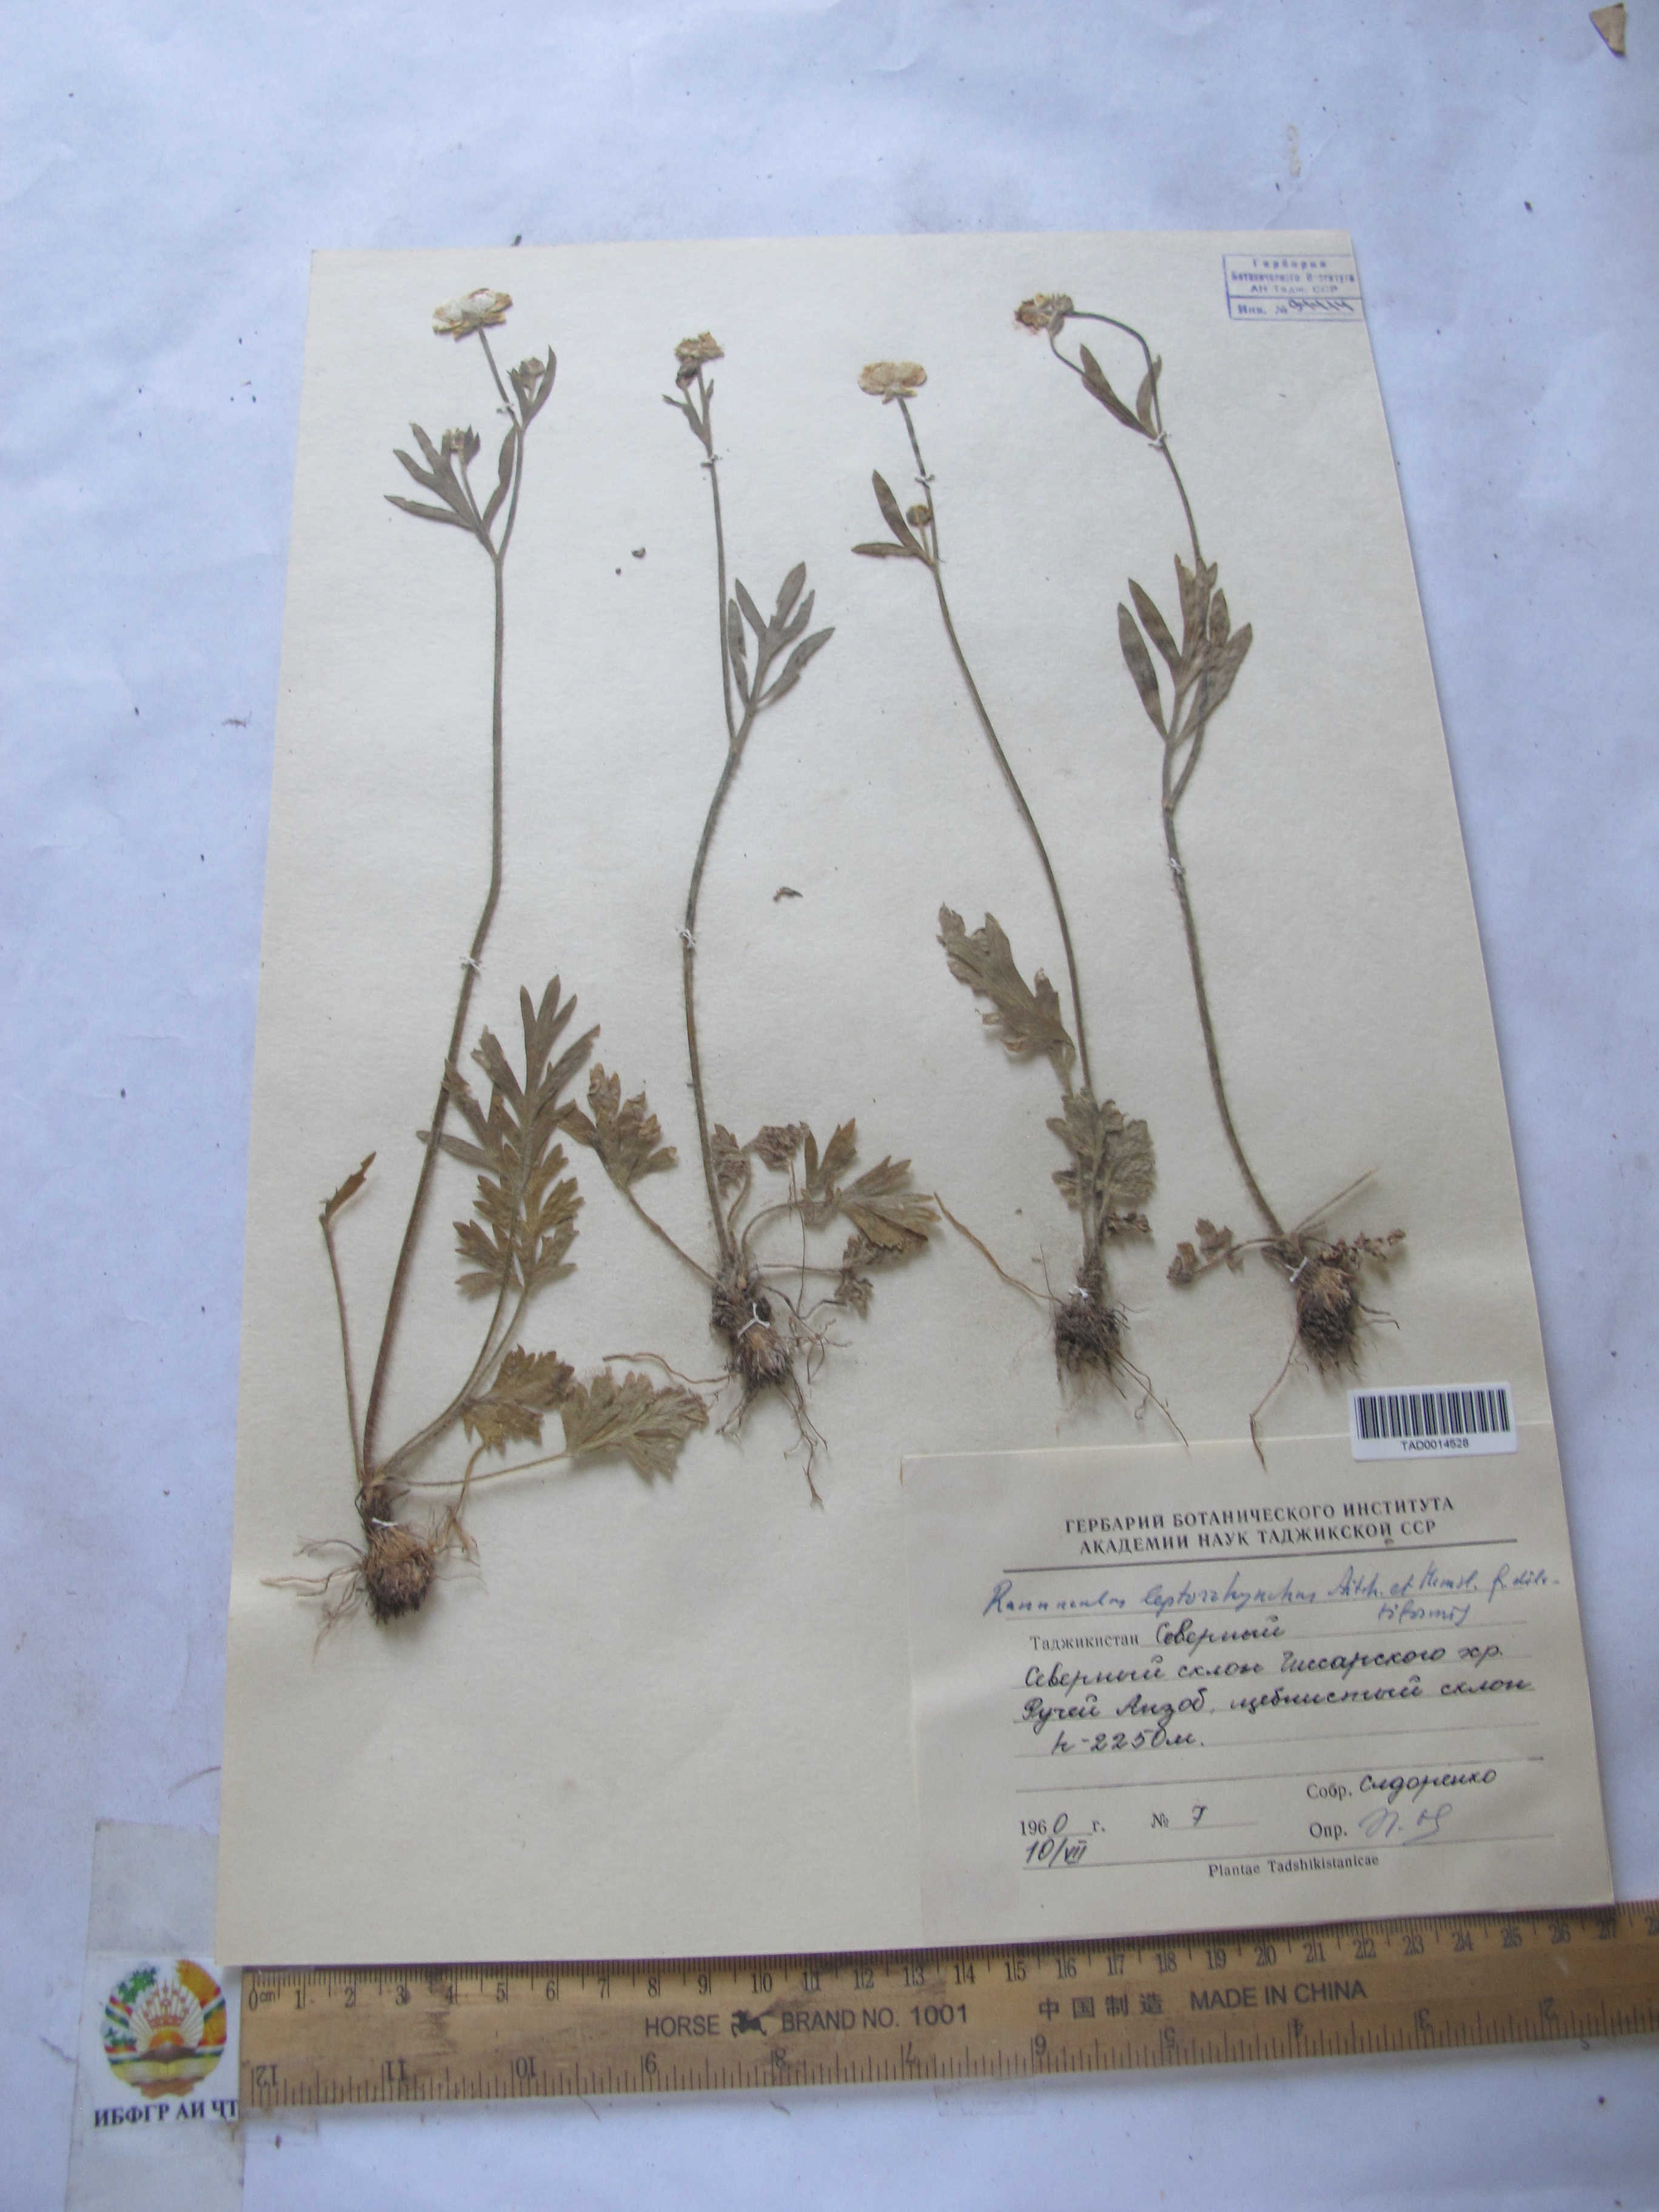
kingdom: Plantae
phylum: Tracheophyta
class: Magnoliopsida
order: Ranunculales
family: Ranunculaceae
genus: Ranunculus
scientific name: Ranunculus leptorrhynchus
